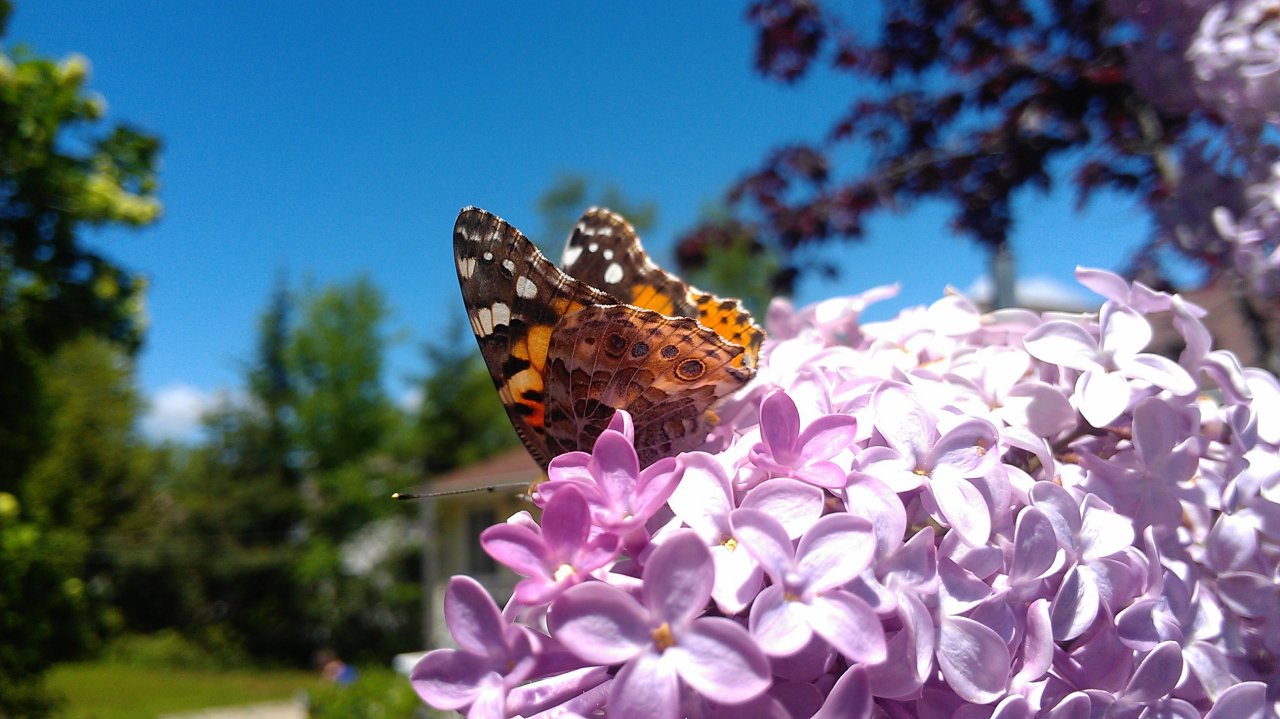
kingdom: Animalia
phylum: Arthropoda
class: Insecta
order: Lepidoptera
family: Nymphalidae
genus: Vanessa
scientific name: Vanessa cardui
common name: Painted Lady
